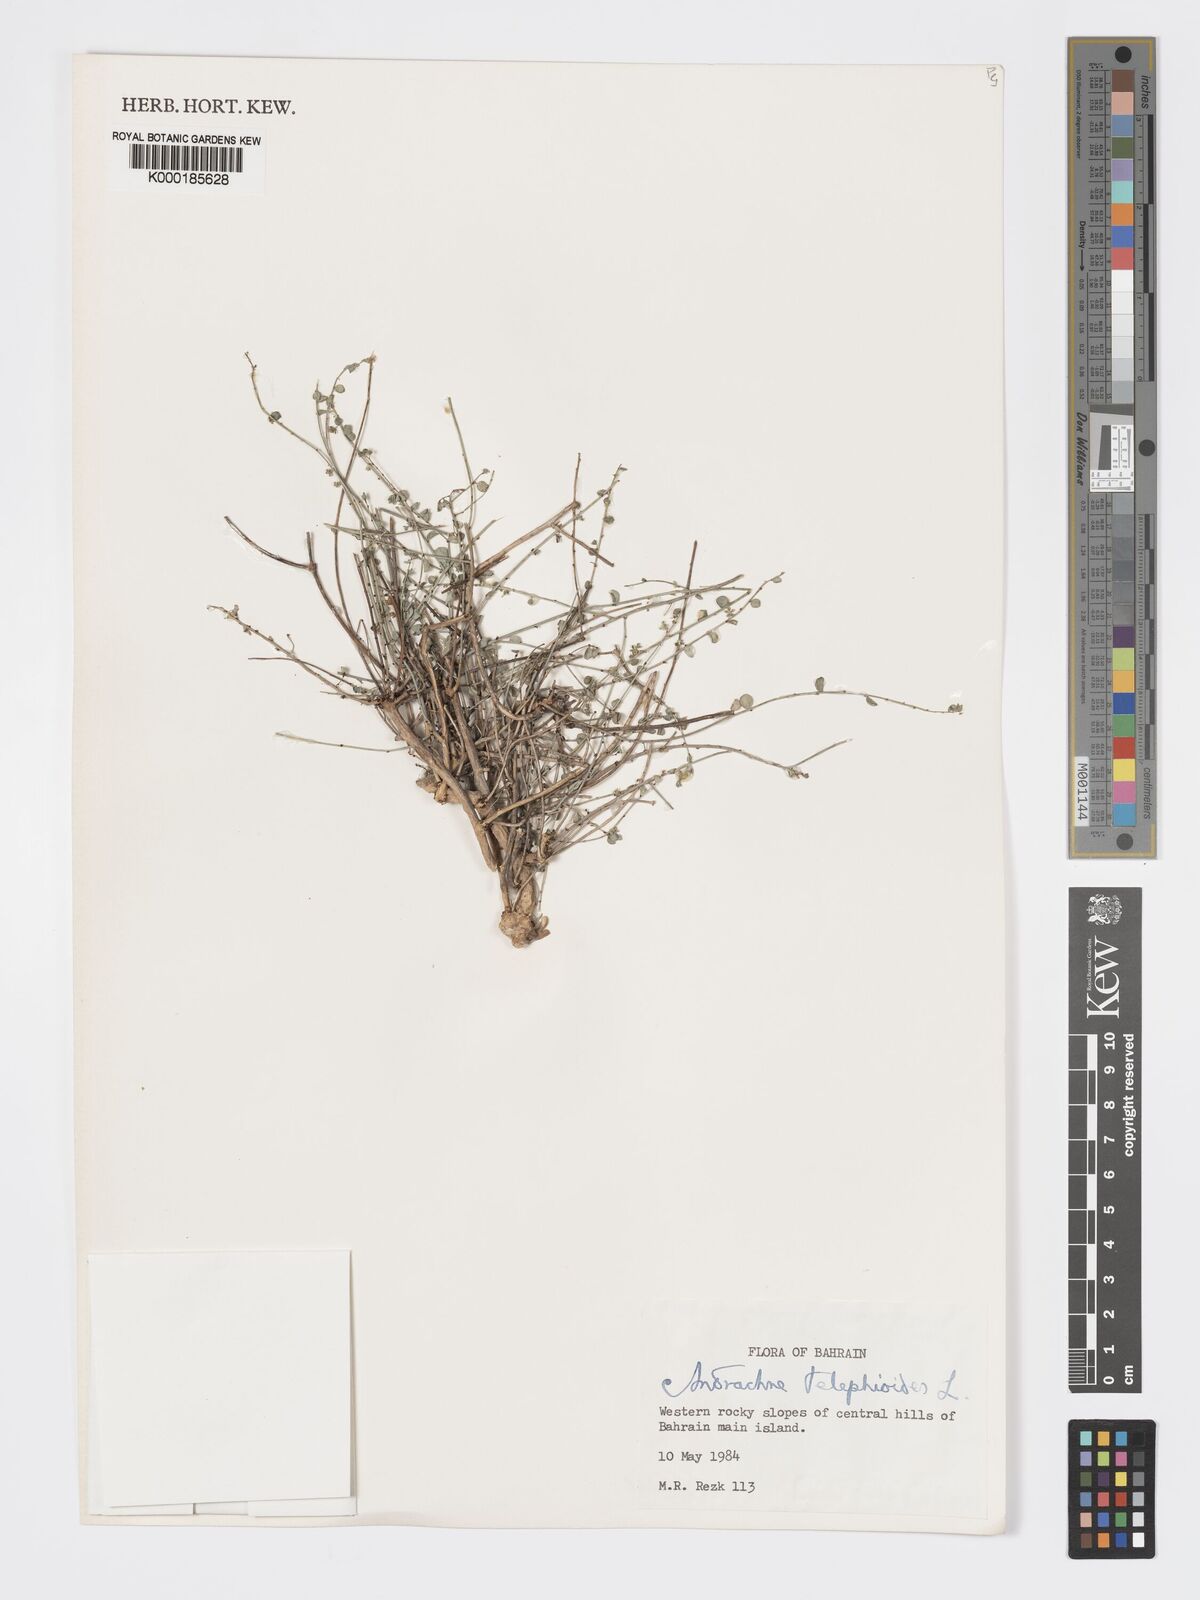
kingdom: Plantae
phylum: Tracheophyta
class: Magnoliopsida
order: Malpighiales
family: Phyllanthaceae
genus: Andrachne
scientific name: Andrachne telephioides
